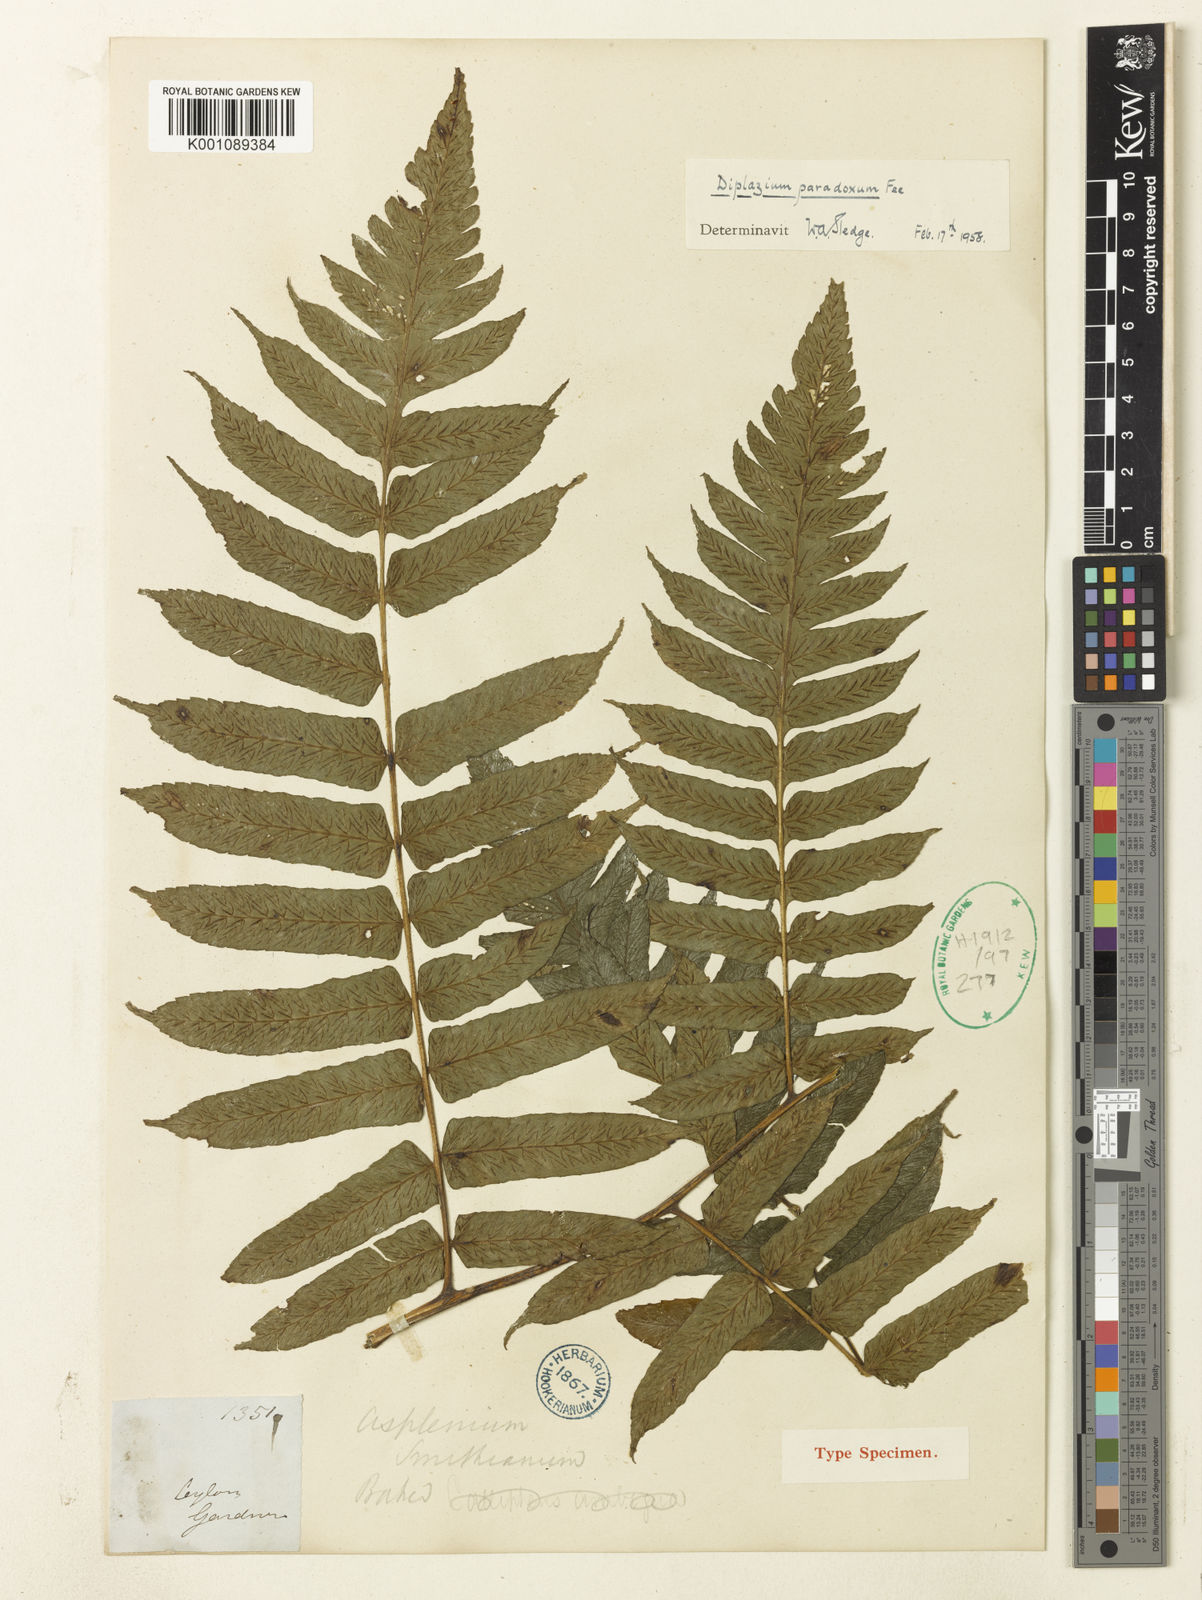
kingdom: Plantae
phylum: Tracheophyta
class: Polypodiopsida
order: Polypodiales
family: Athyriaceae
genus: Diplazium
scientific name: Diplazium
